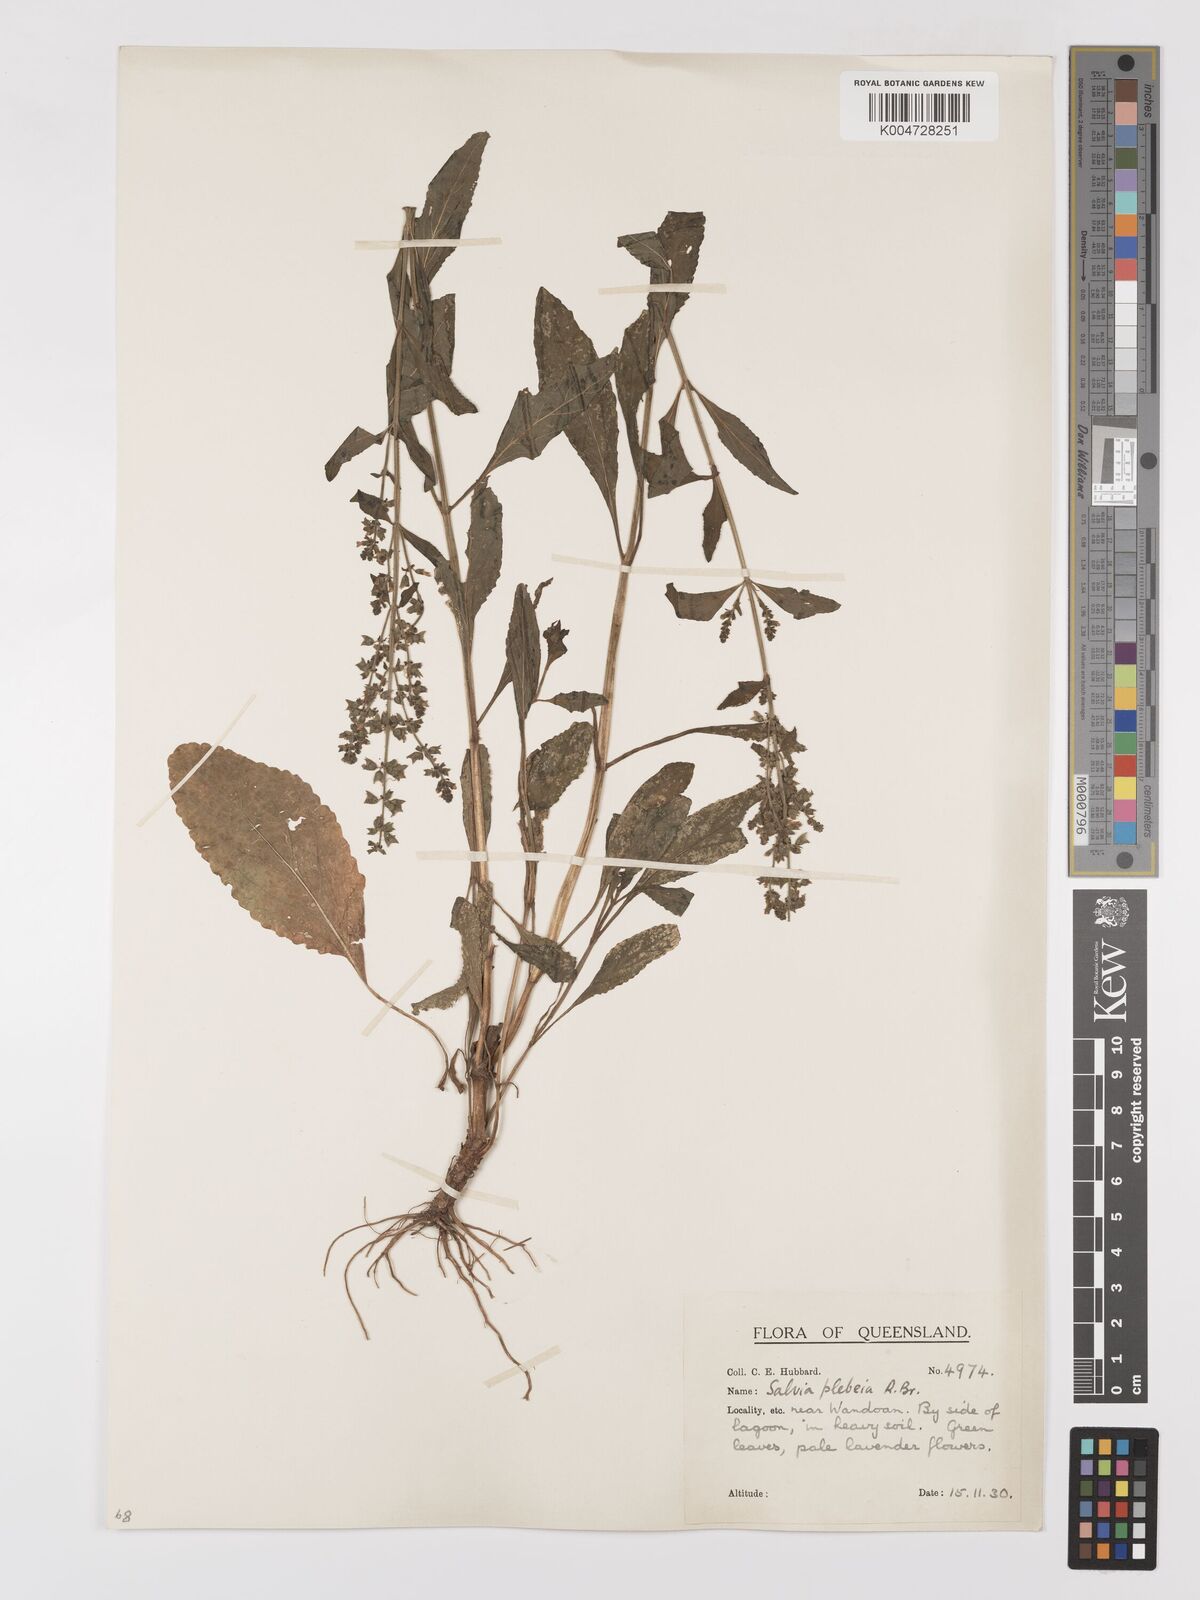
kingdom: Plantae
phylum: Tracheophyta
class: Magnoliopsida
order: Lamiales
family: Lamiaceae
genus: Salvia
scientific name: Salvia plebeia
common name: Australian sage
